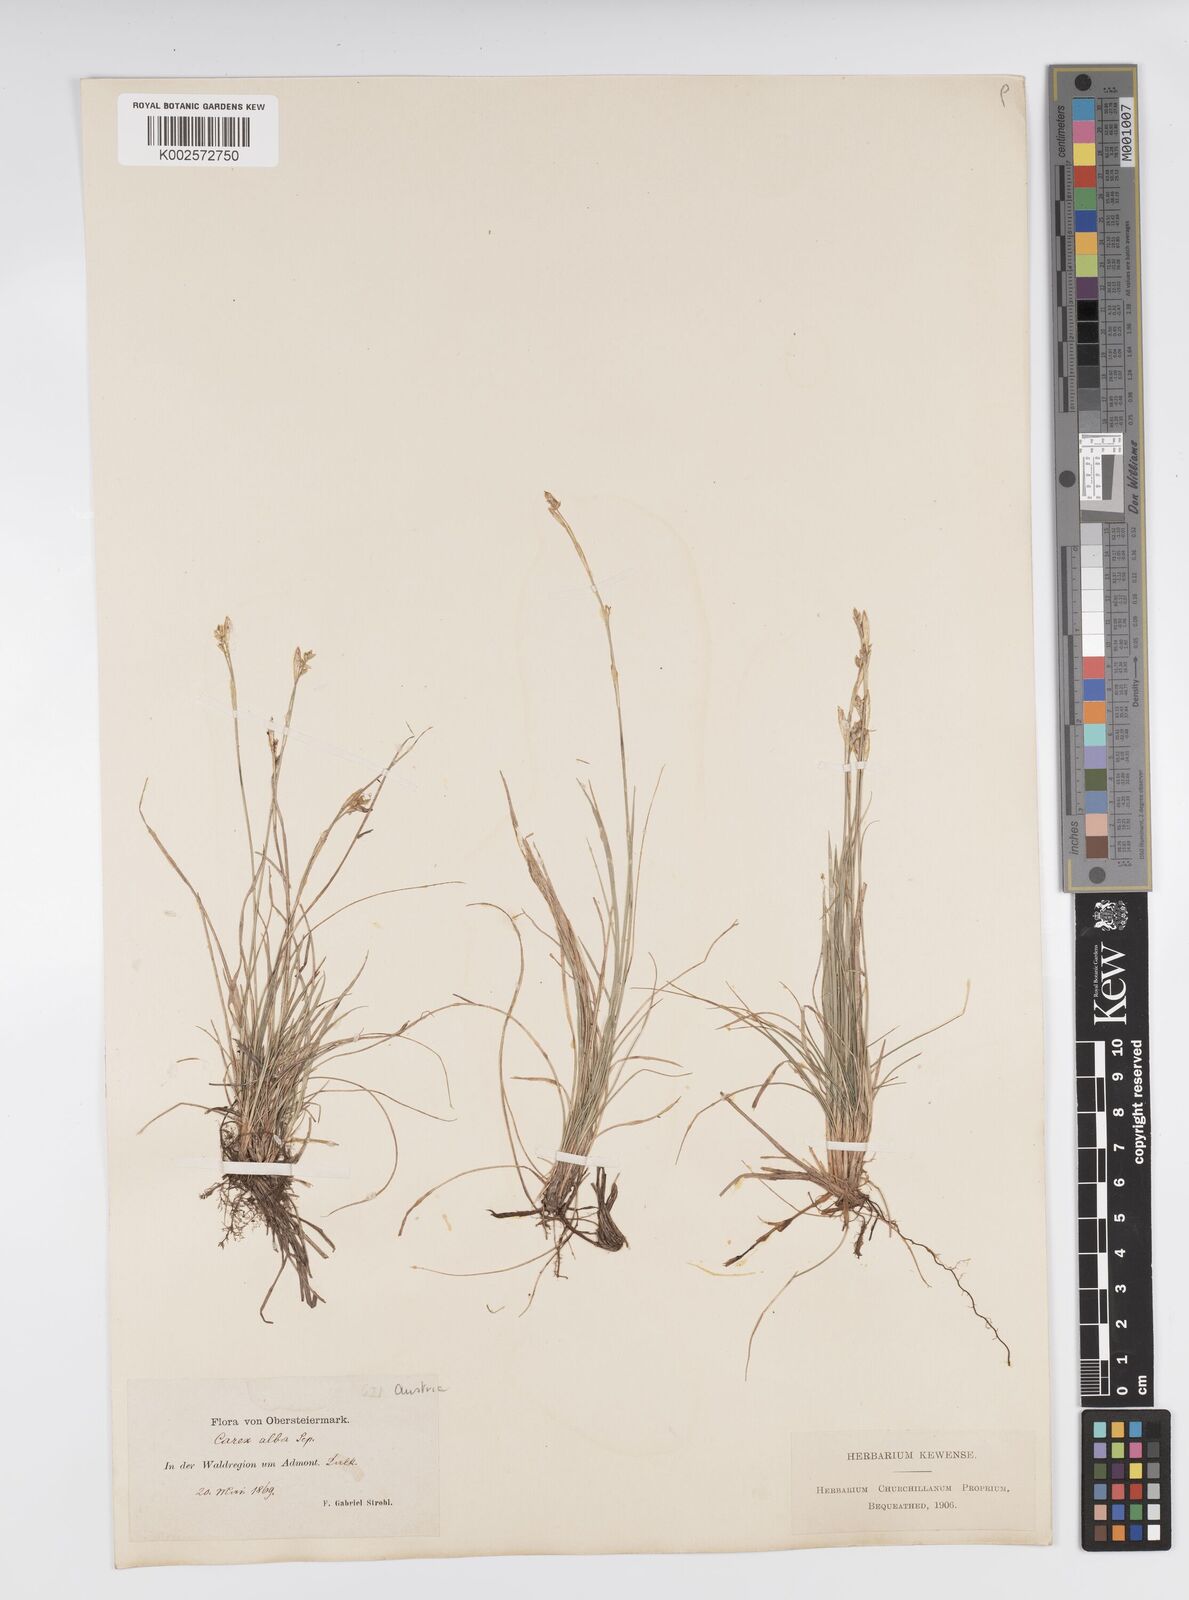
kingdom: Plantae
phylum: Tracheophyta
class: Liliopsida
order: Poales
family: Cyperaceae
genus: Carex
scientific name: Carex alba
